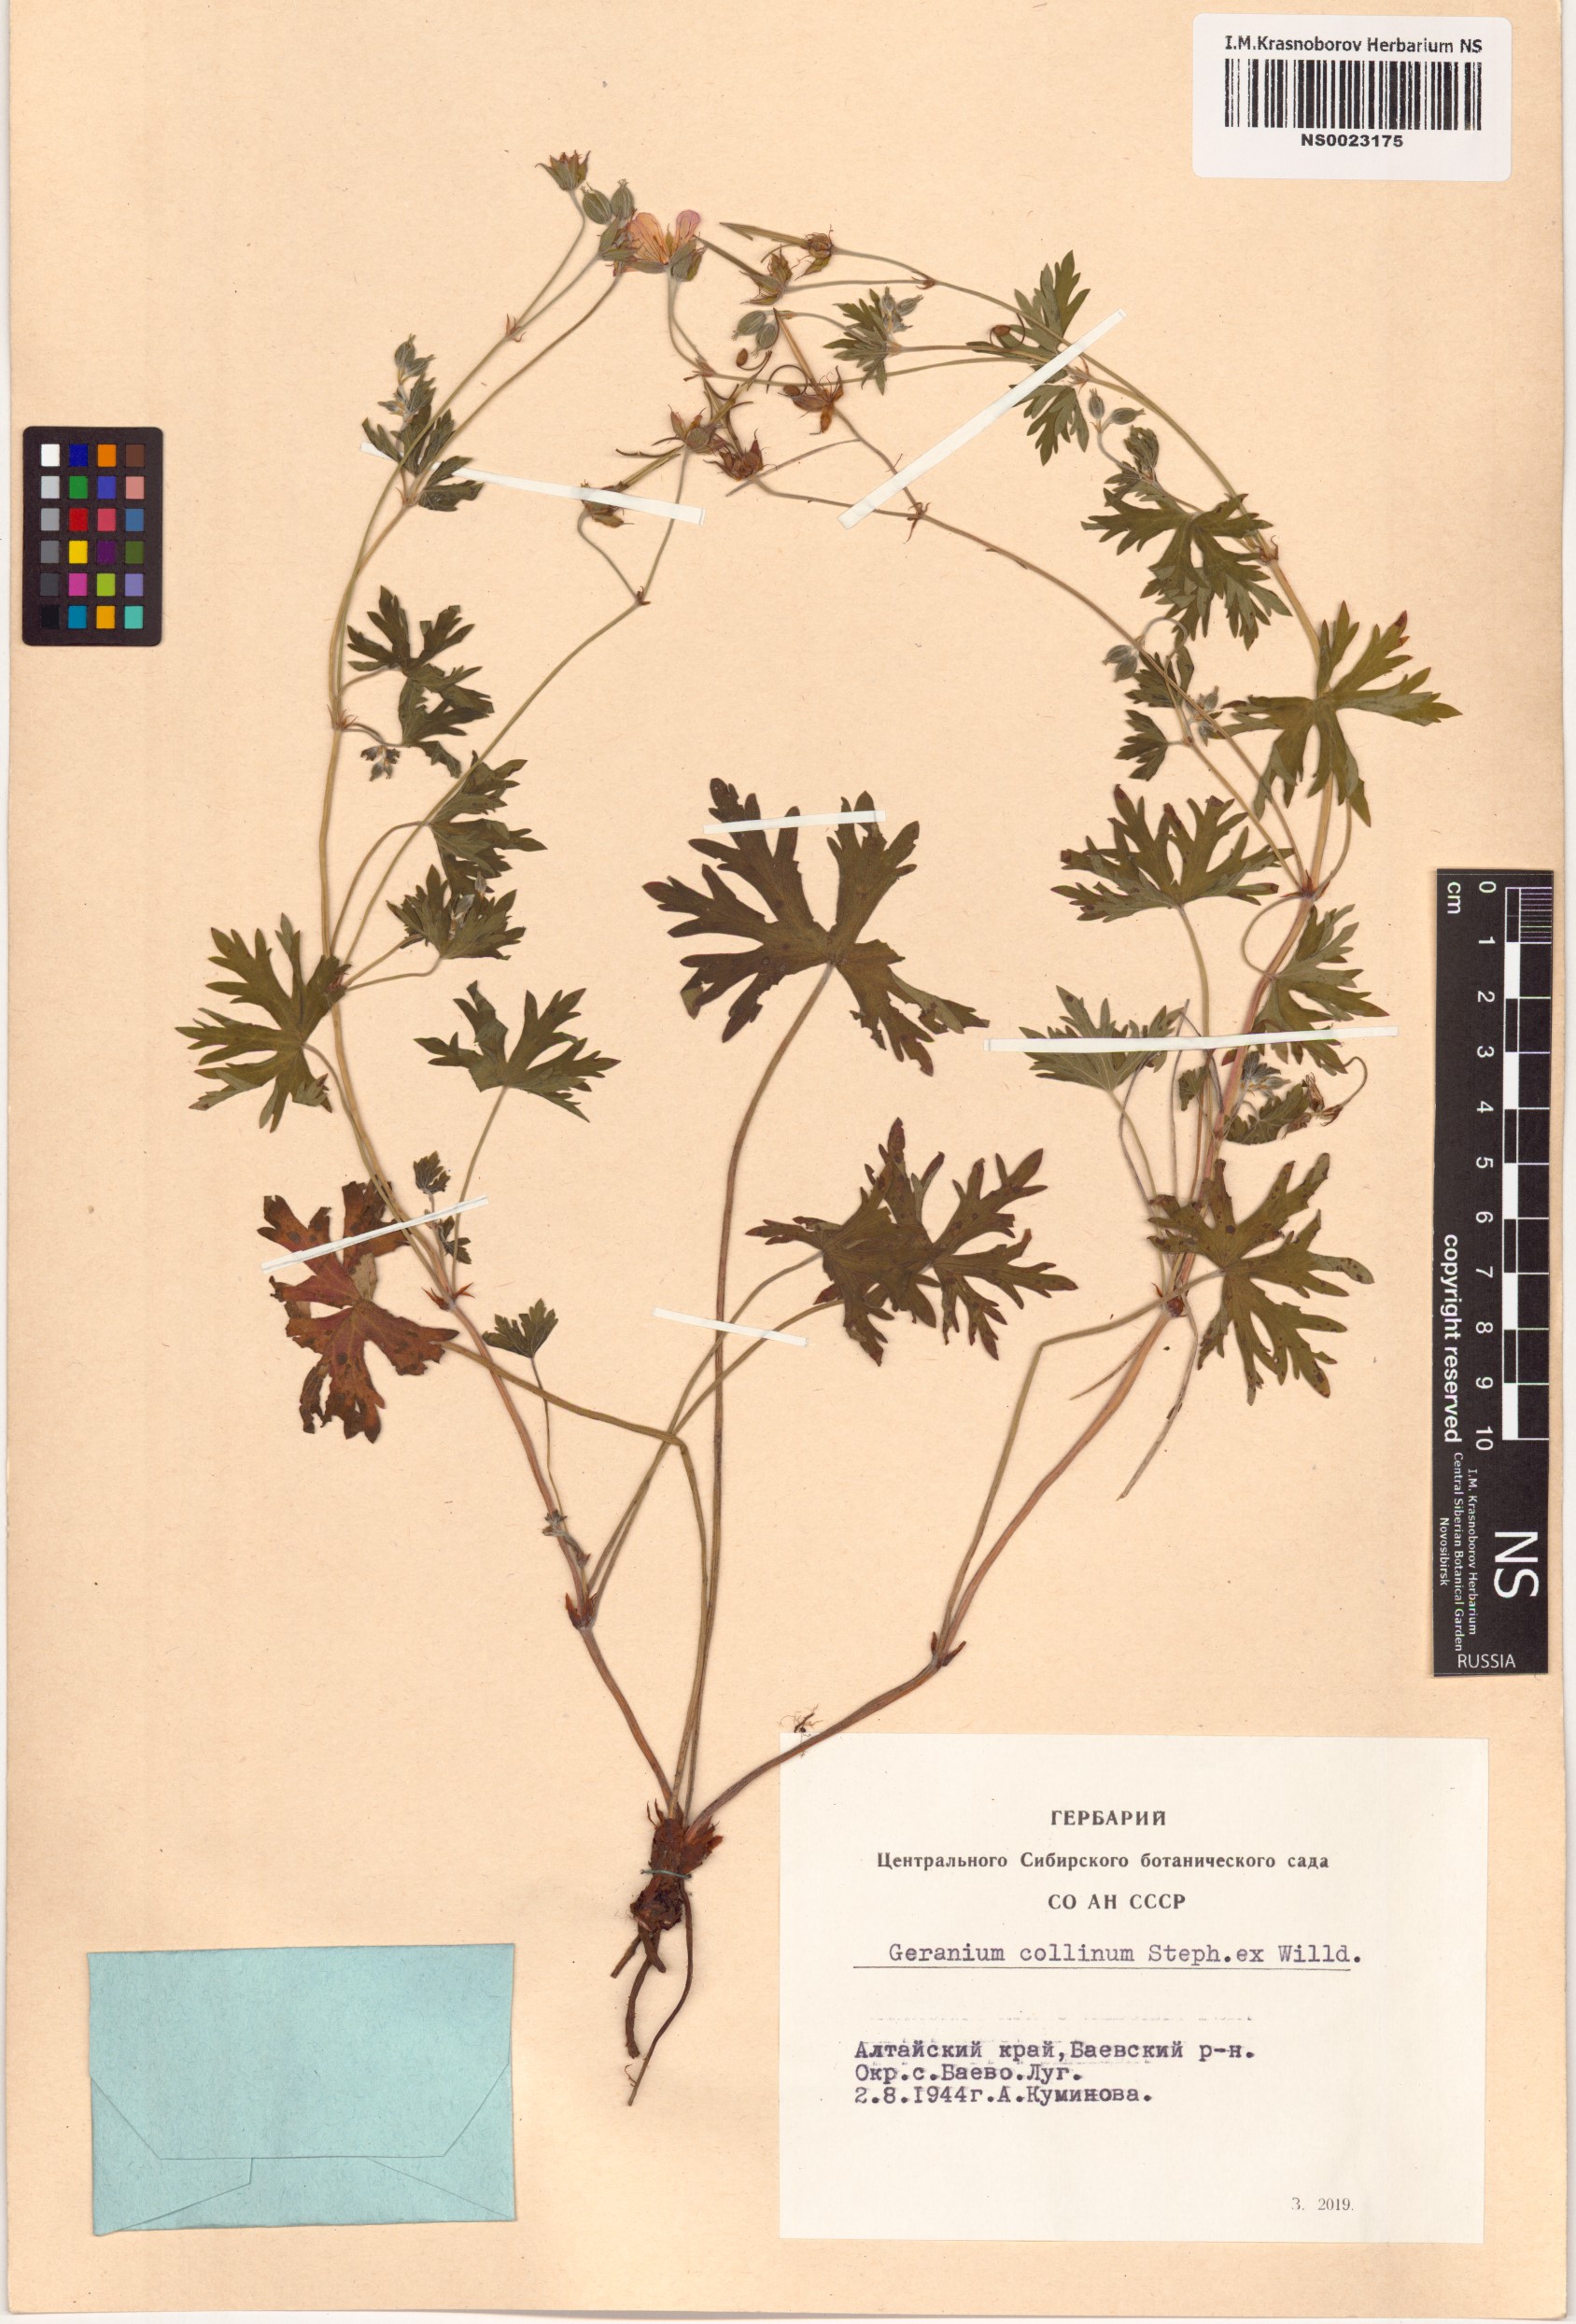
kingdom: Plantae
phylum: Tracheophyta
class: Magnoliopsida
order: Geraniales
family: Geraniaceae
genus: Geranium
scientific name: Geranium collinum
